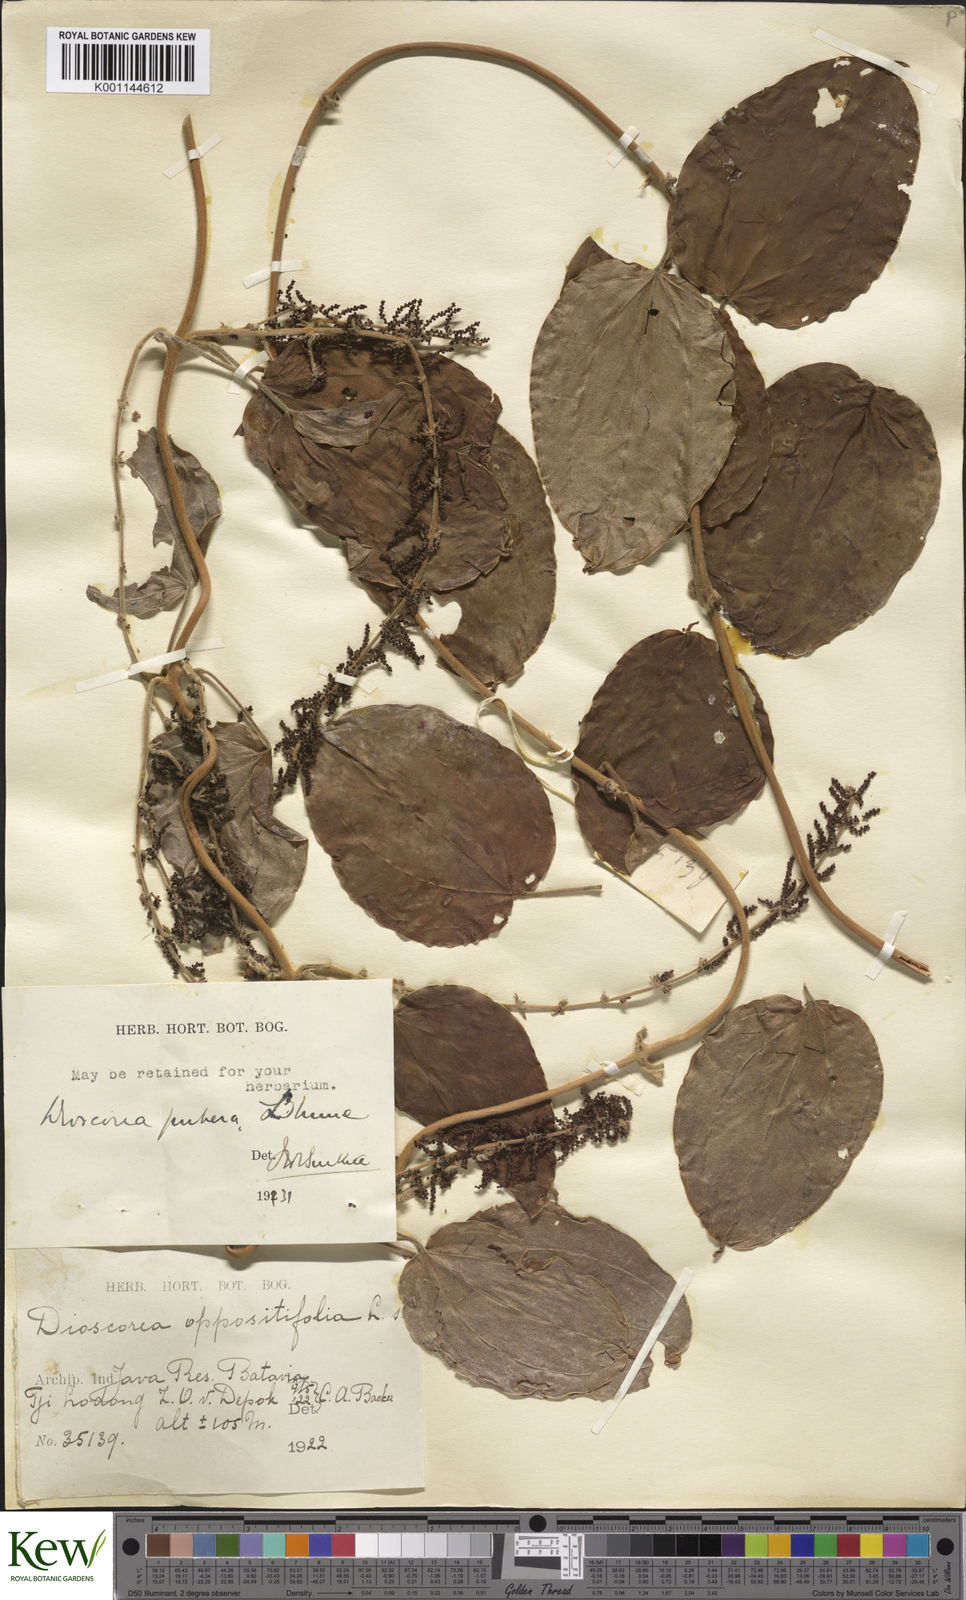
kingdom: Plantae
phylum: Tracheophyta
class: Liliopsida
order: Dioscoreales
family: Dioscoreaceae
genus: Dioscorea
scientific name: Dioscorea pubera
